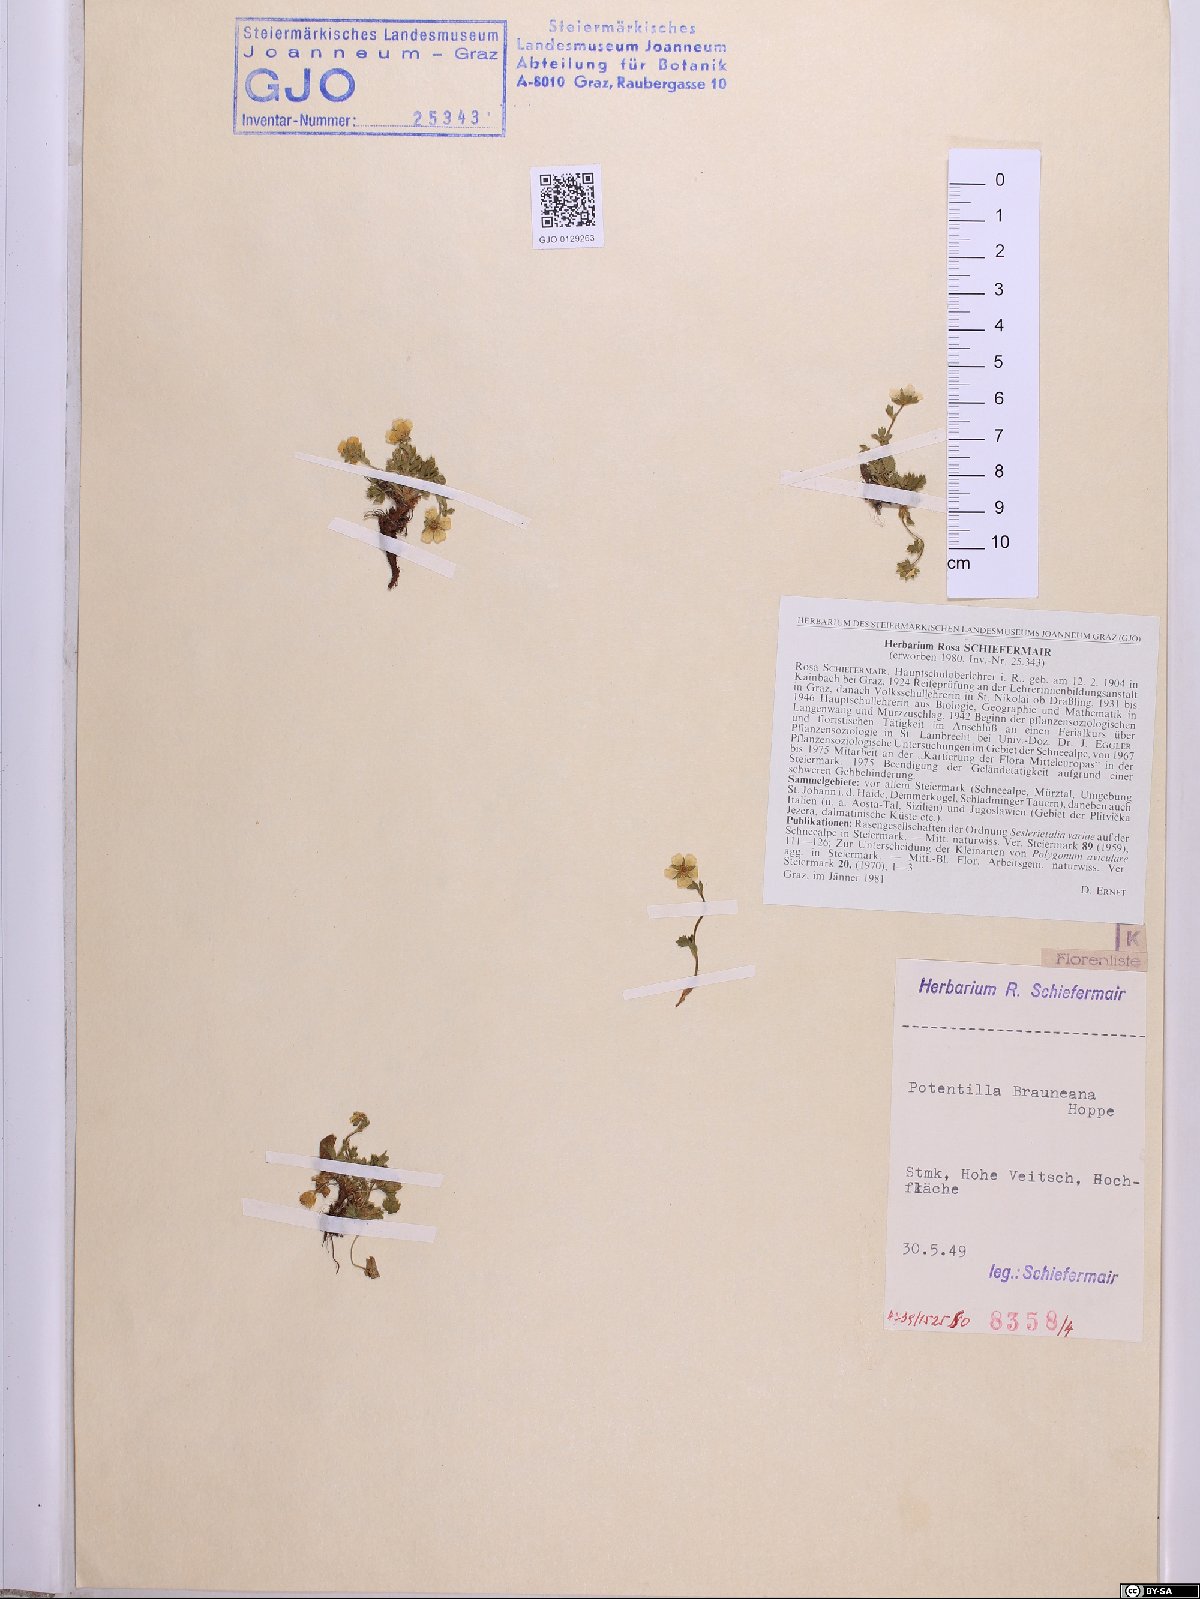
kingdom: Plantae
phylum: Tracheophyta
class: Magnoliopsida
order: Rosales
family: Rosaceae
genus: Potentilla
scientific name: Potentilla brauneana
